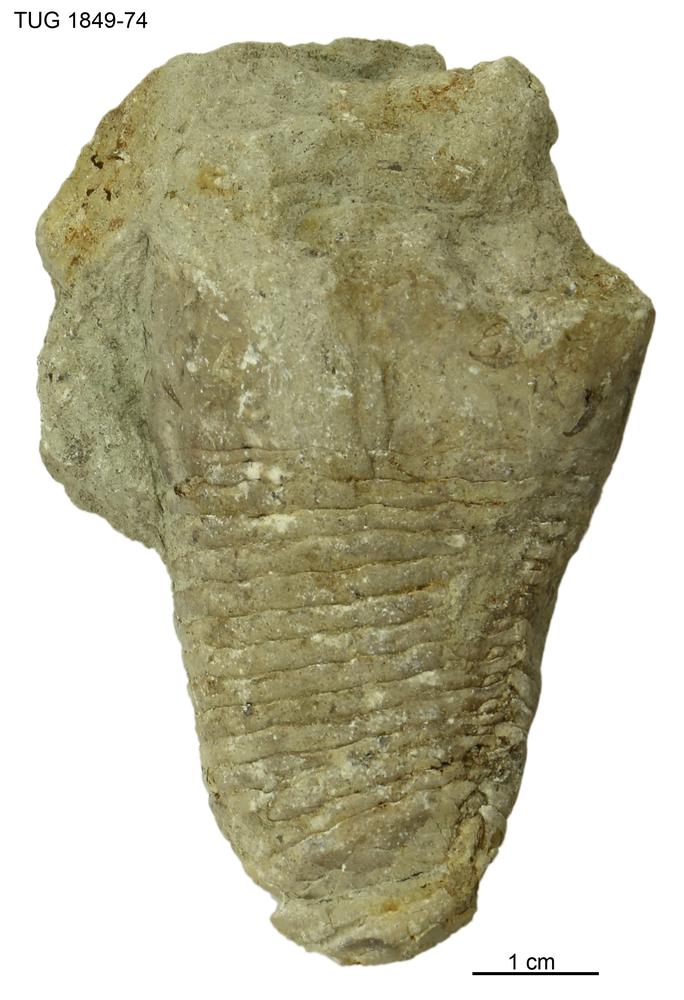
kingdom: Animalia
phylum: Mollusca
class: Cephalopoda
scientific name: Cephalopoda
